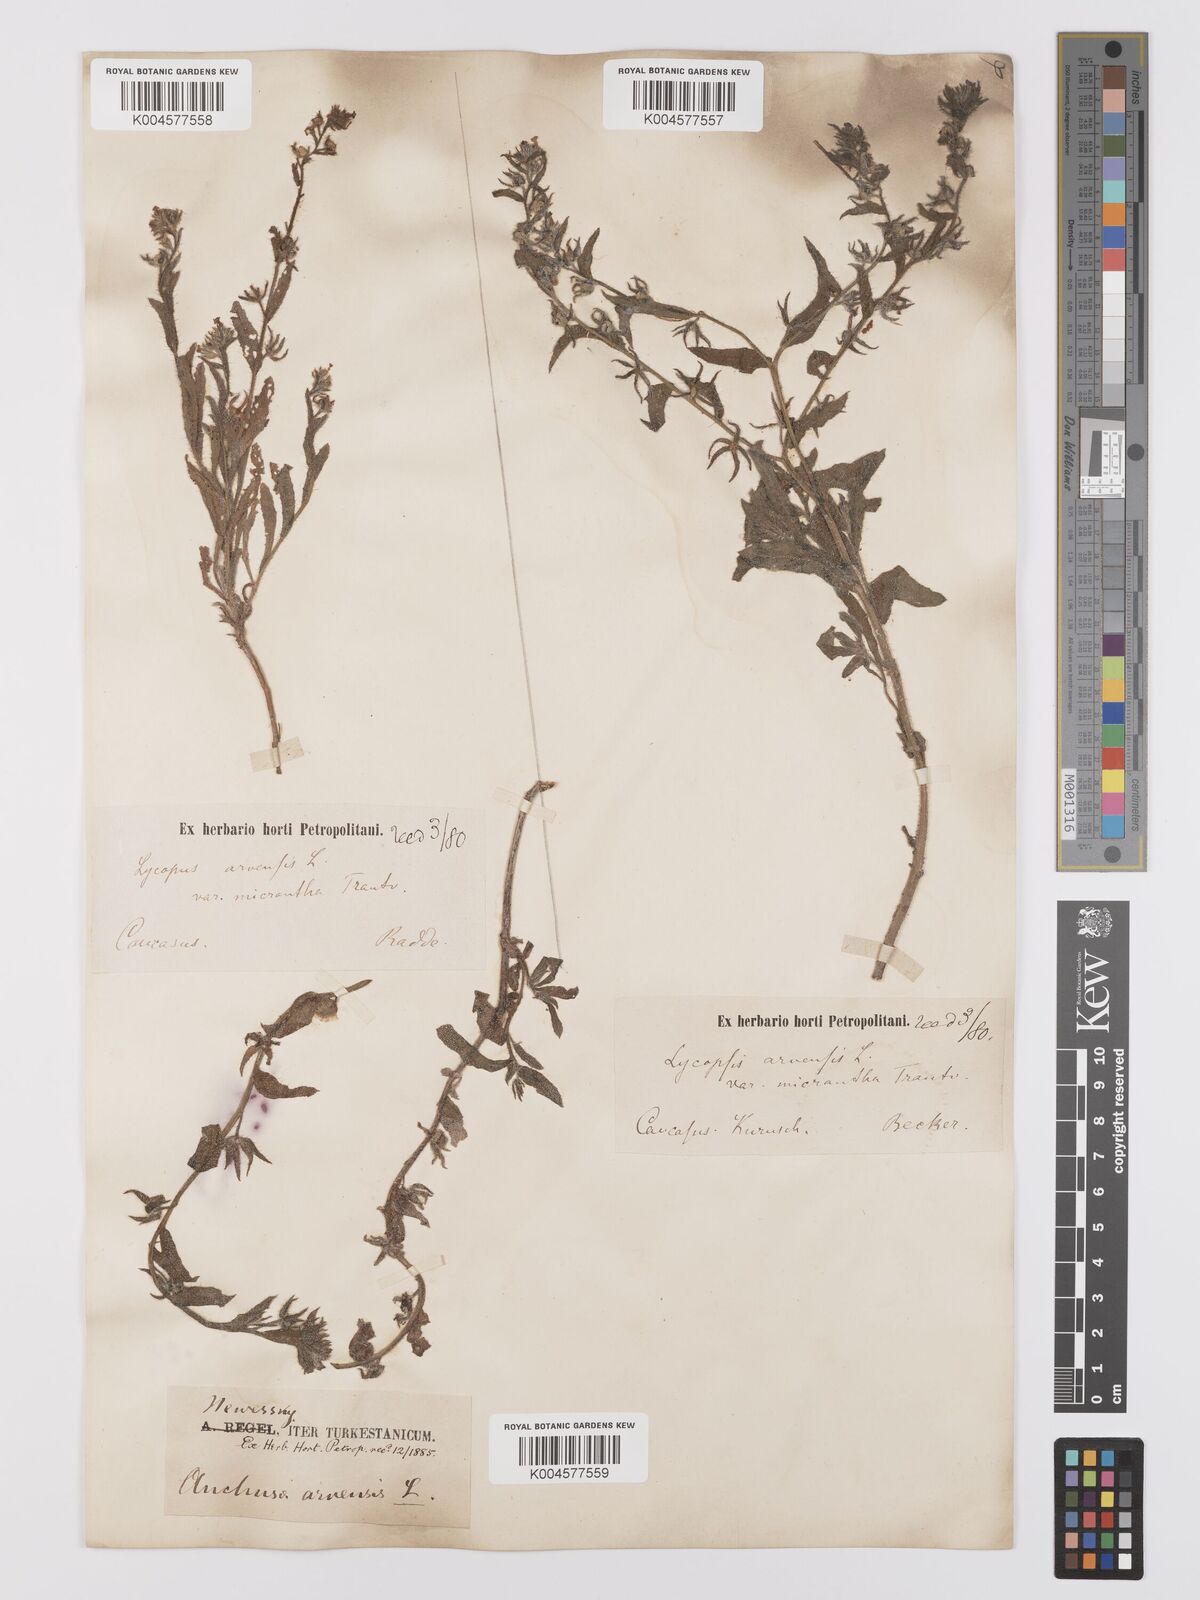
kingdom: Plantae
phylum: Tracheophyta
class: Magnoliopsida
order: Boraginales
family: Boraginaceae
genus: Lycopsis
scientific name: Lycopsis arvensis
